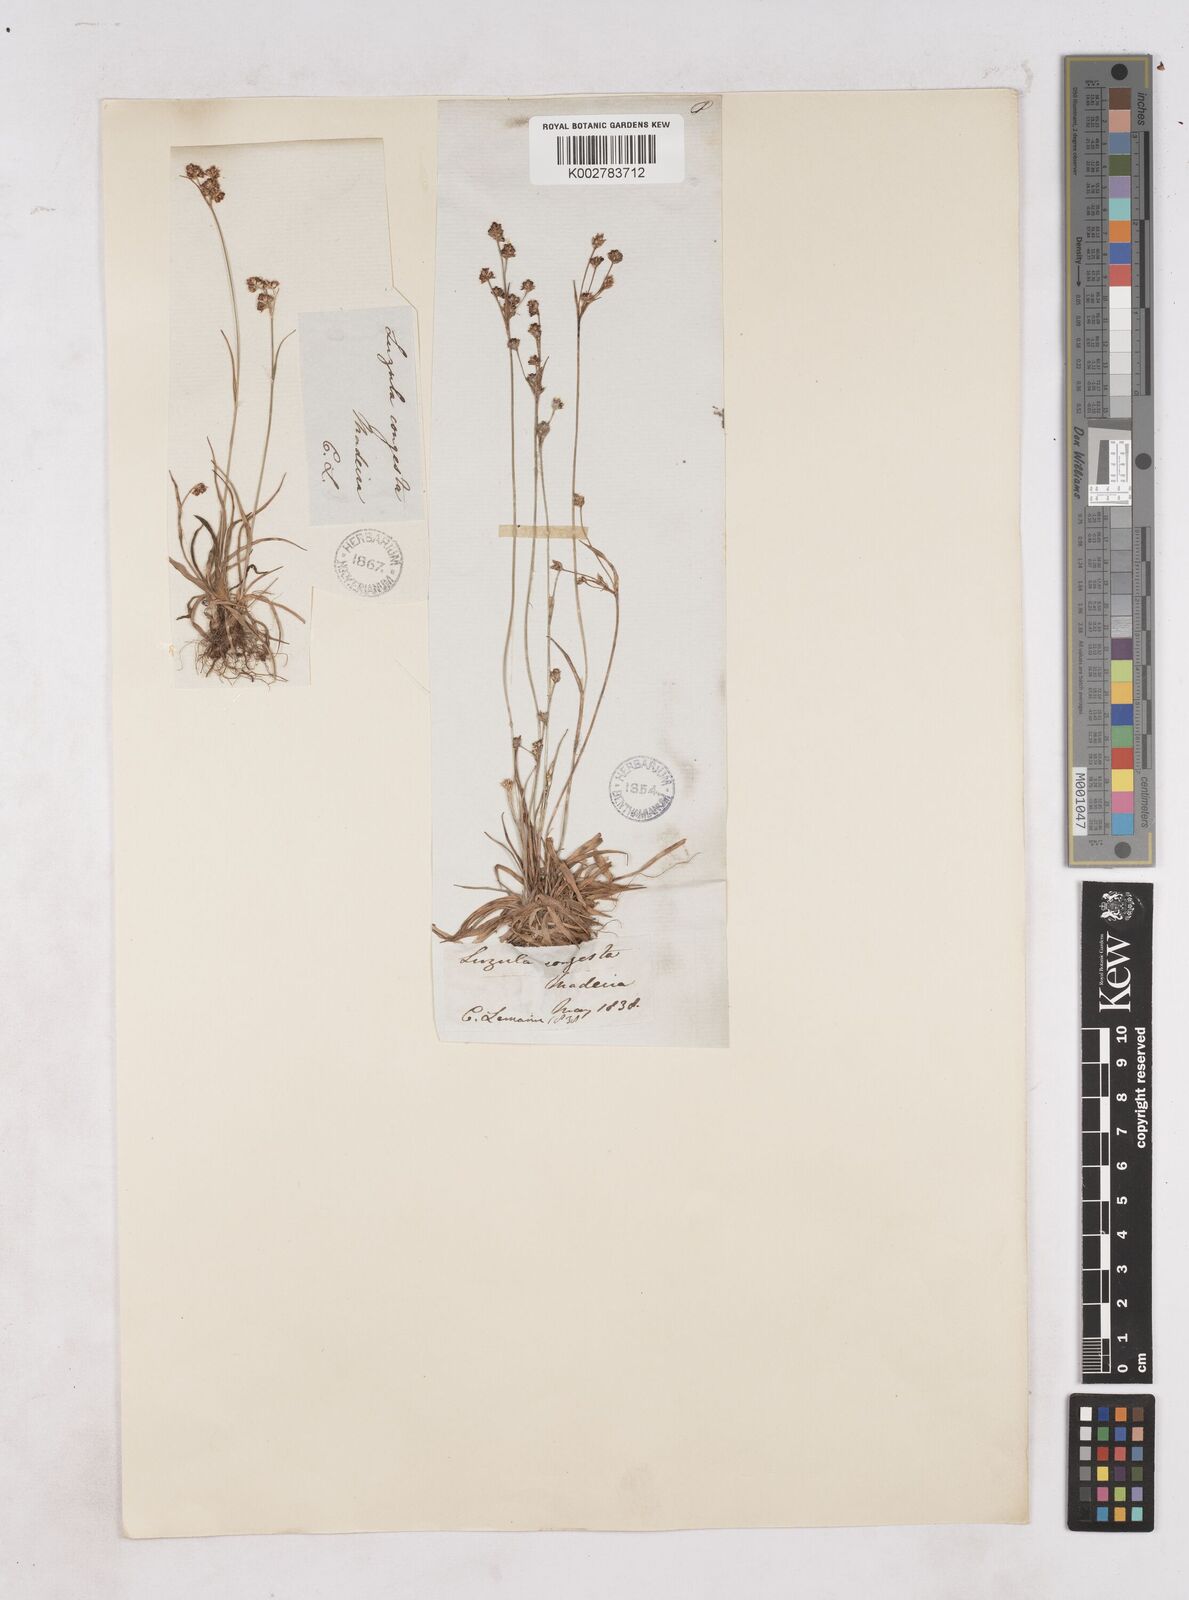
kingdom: Plantae
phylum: Tracheophyta
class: Liliopsida
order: Poales
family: Juncaceae
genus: Luzula
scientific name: Luzula campestris
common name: Field wood-rush
